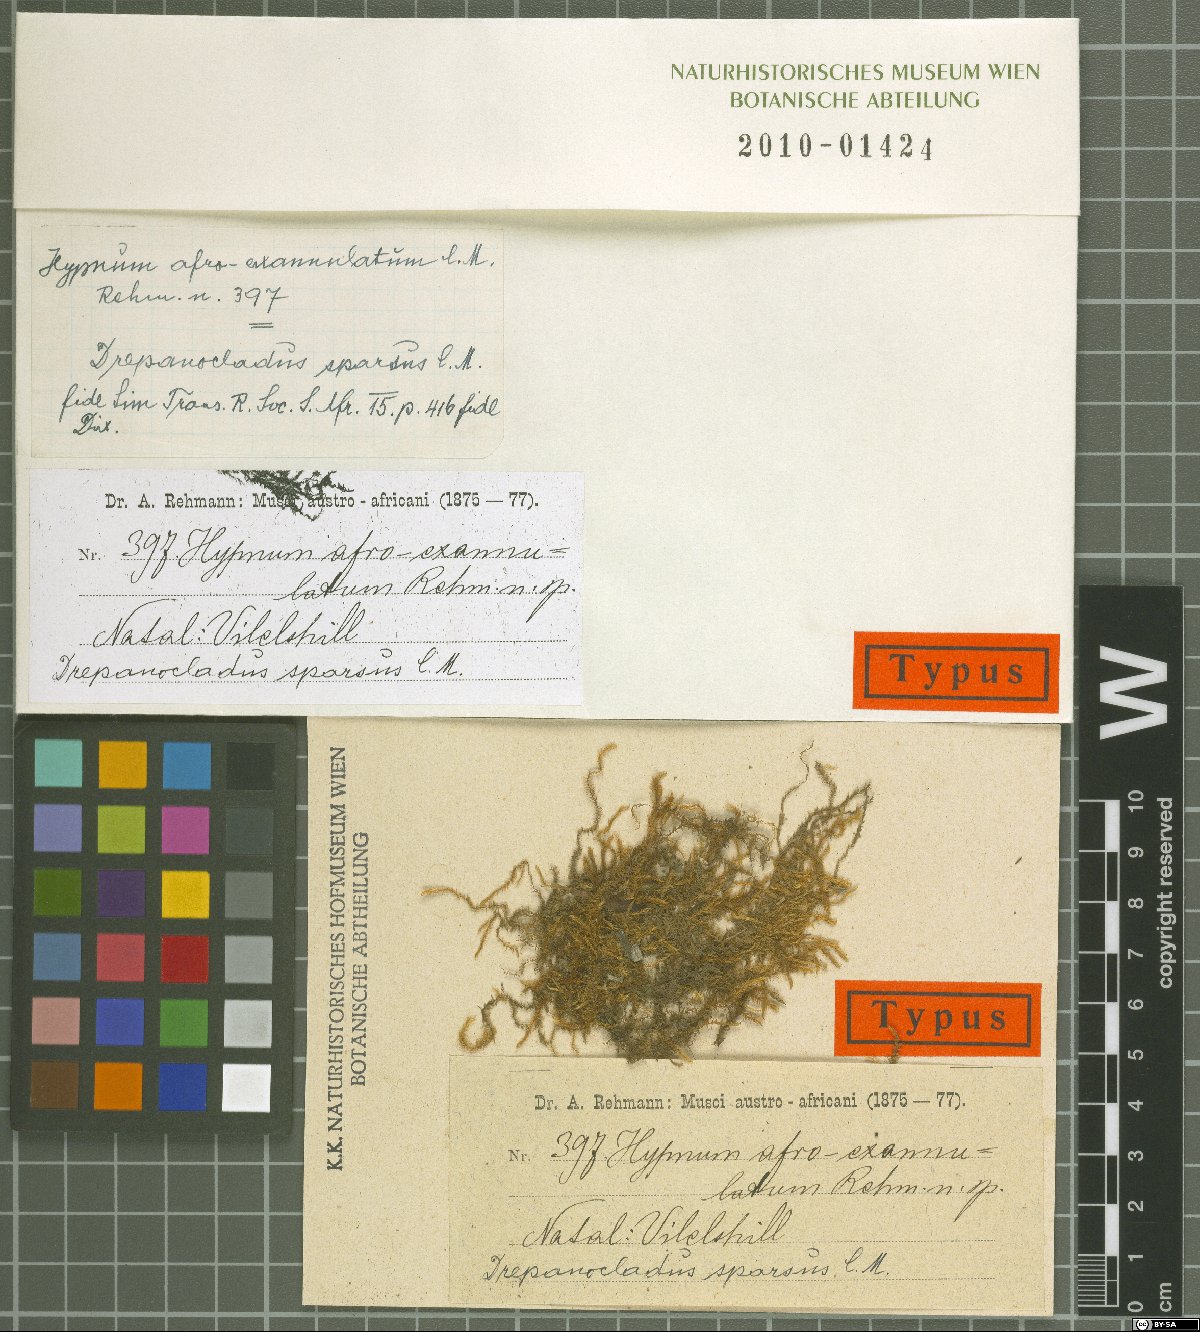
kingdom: Plantae
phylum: Bryophyta
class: Bryopsida
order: Hypnales
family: Hypnaceae
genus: Hypnum
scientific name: Hypnum
